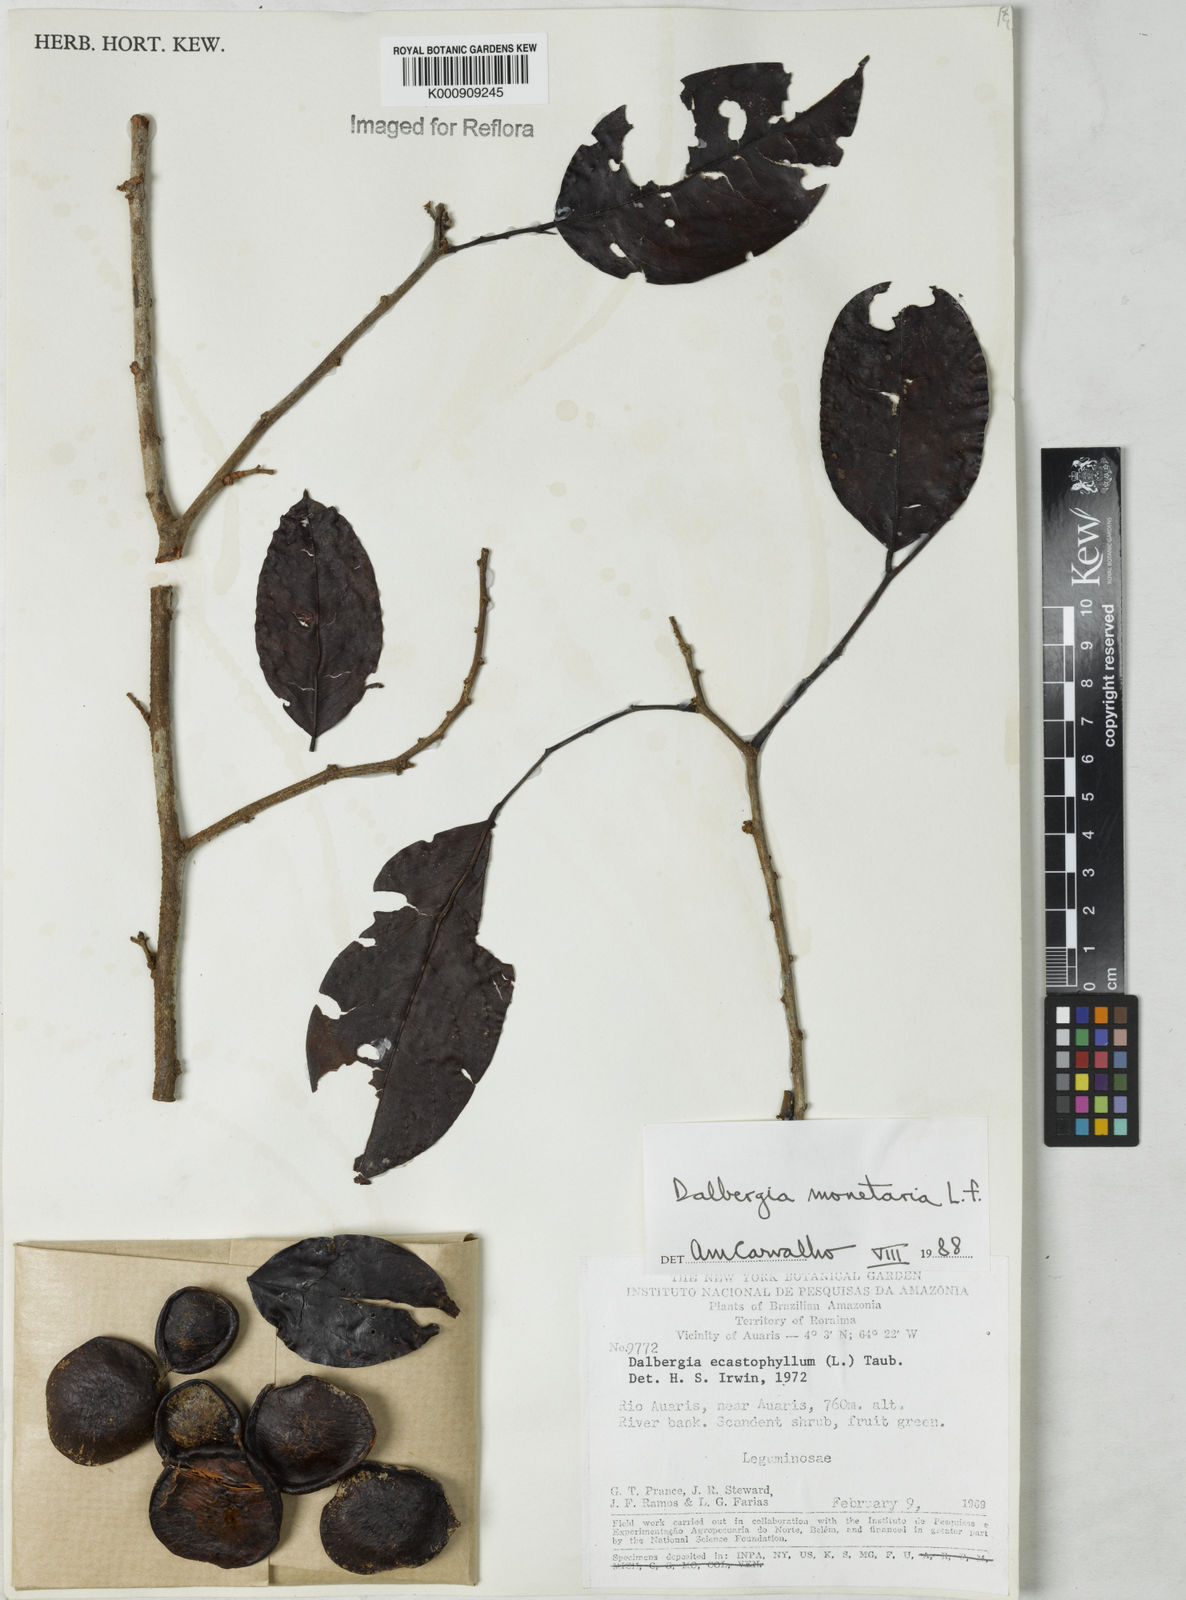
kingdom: Plantae
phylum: Tracheophyta
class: Magnoliopsida
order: Fabales
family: Fabaceae
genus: Dalbergia
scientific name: Dalbergia ovalis
